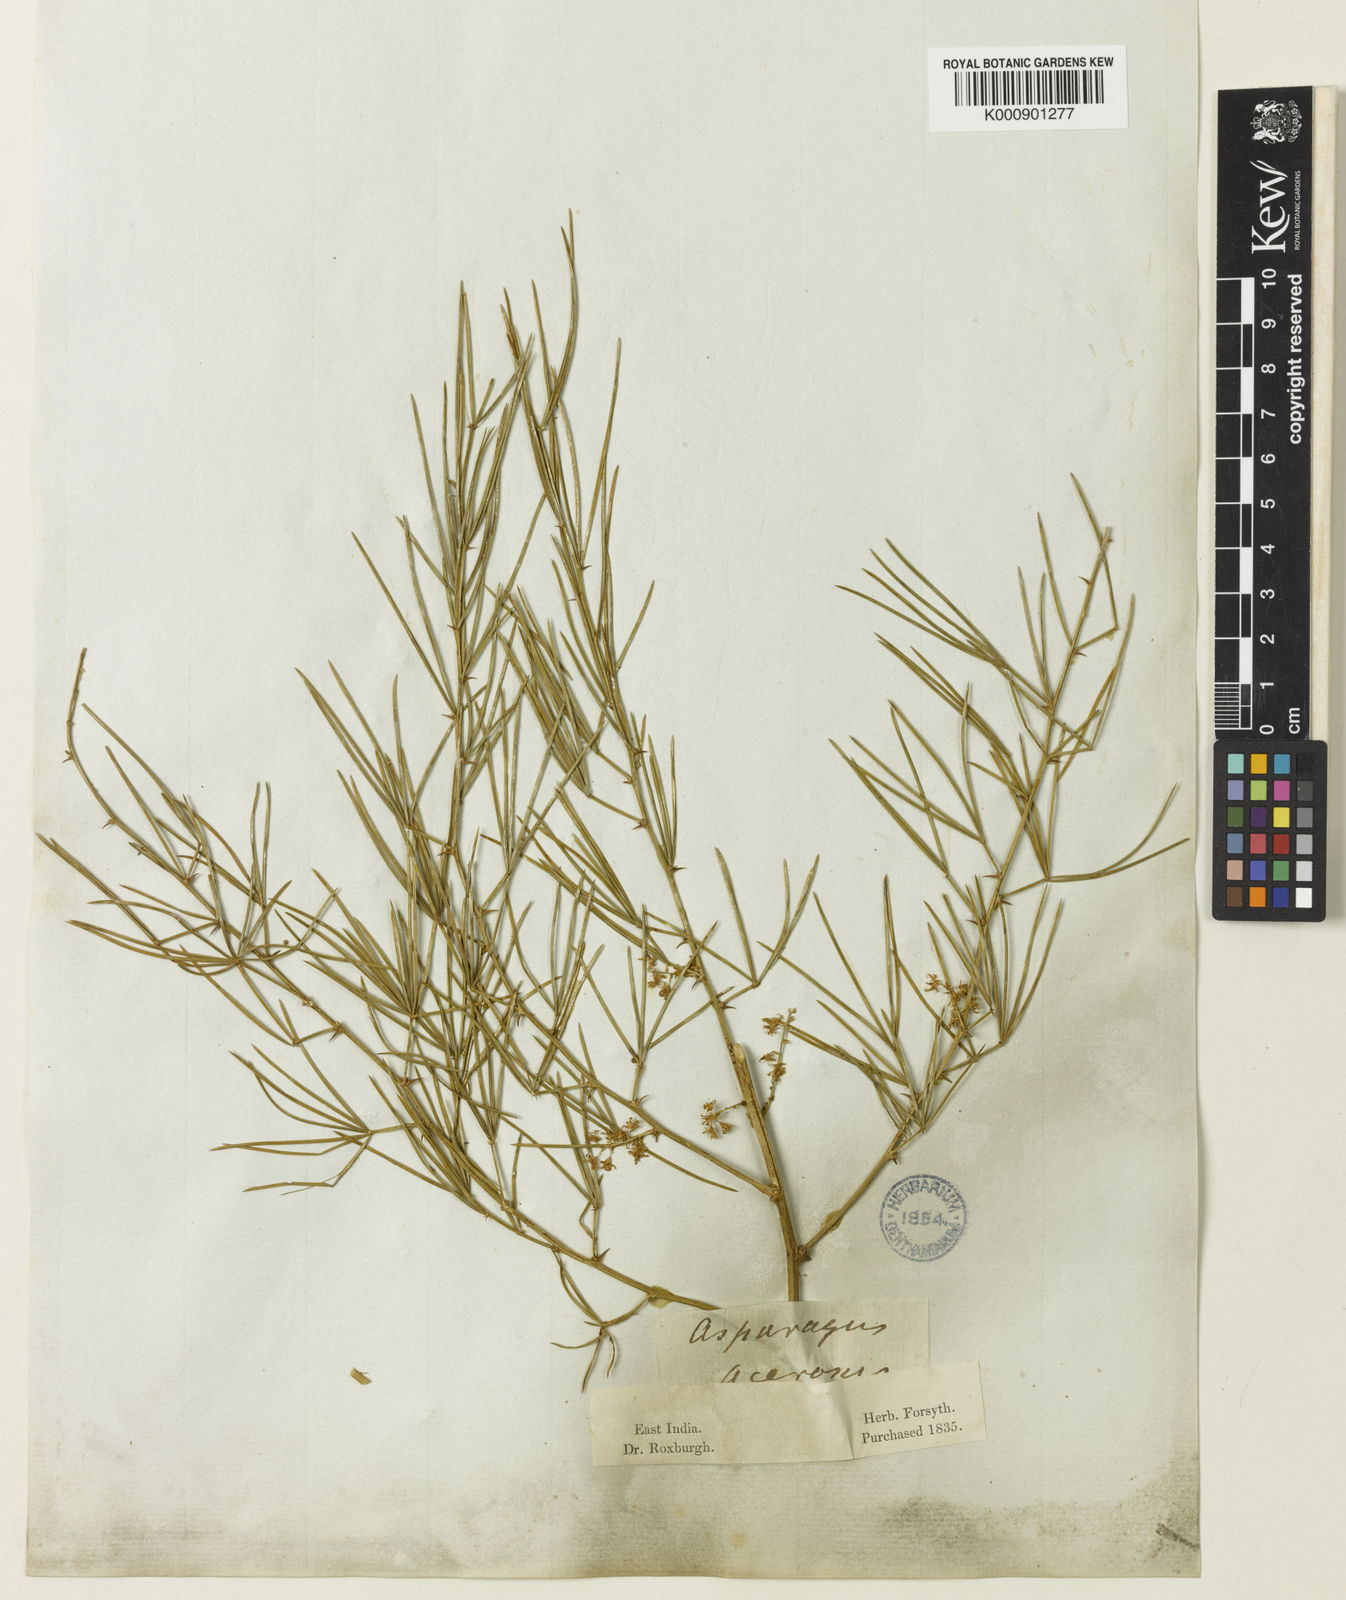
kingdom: Plantae
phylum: Tracheophyta
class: Liliopsida
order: Asparagales
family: Asparagaceae
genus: Asparagus
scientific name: Asparagus racemosus
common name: Asparagus-fern
